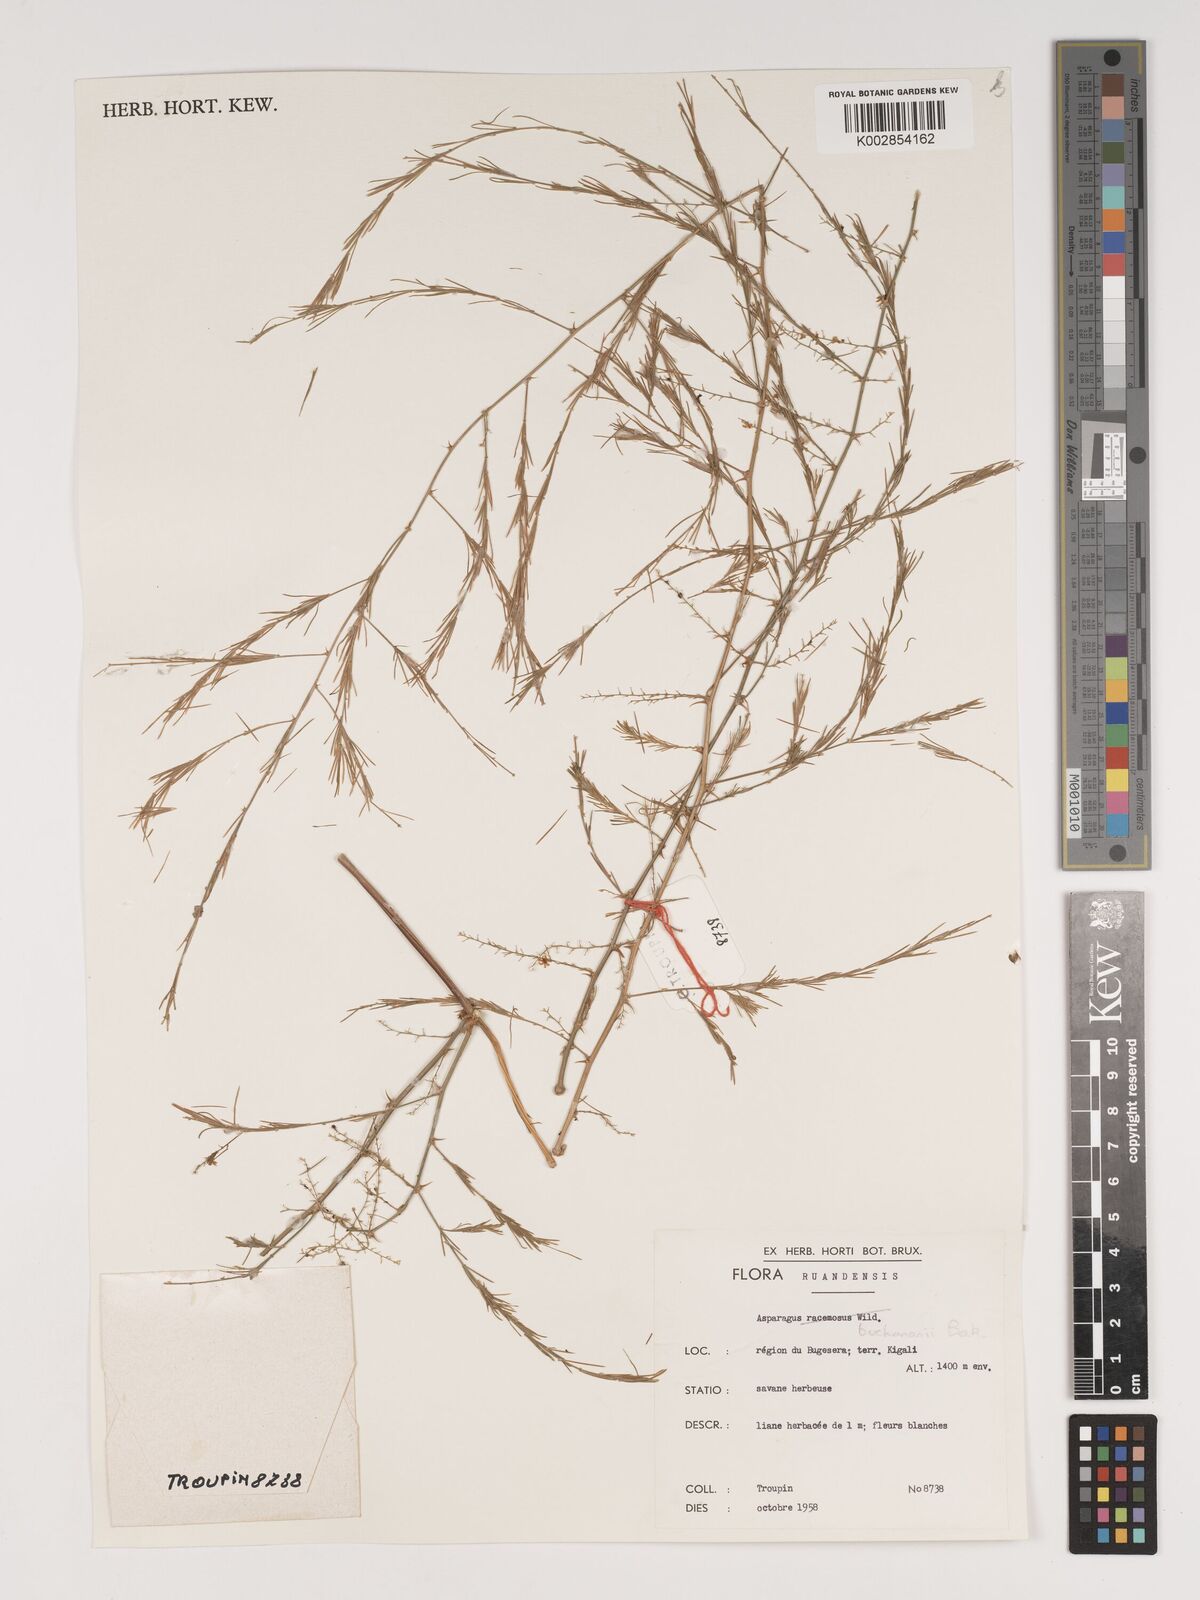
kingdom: Plantae
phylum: Tracheophyta
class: Liliopsida
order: Asparagales
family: Asparagaceae
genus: Asparagus
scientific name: Asparagus buchananii
